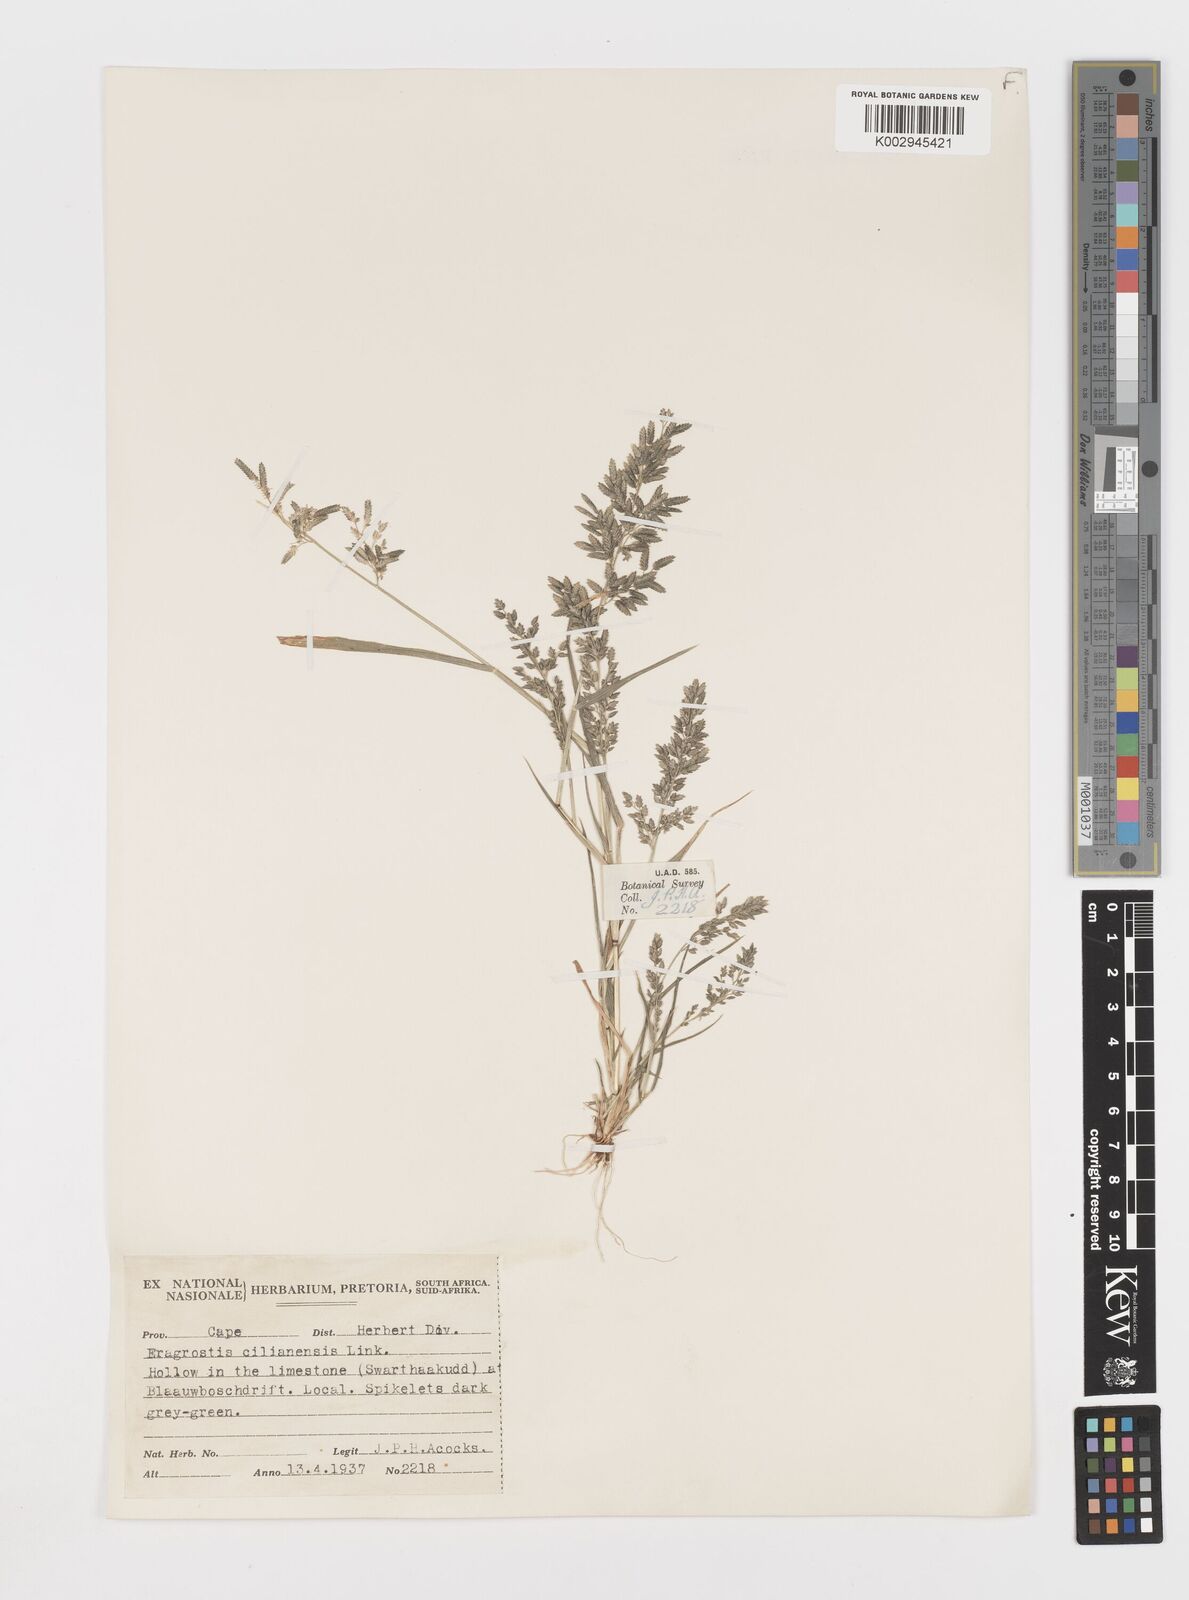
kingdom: Plantae
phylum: Tracheophyta
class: Liliopsida
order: Poales
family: Poaceae
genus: Eragrostis
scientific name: Eragrostis cilianensis
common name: Stinkgrass
